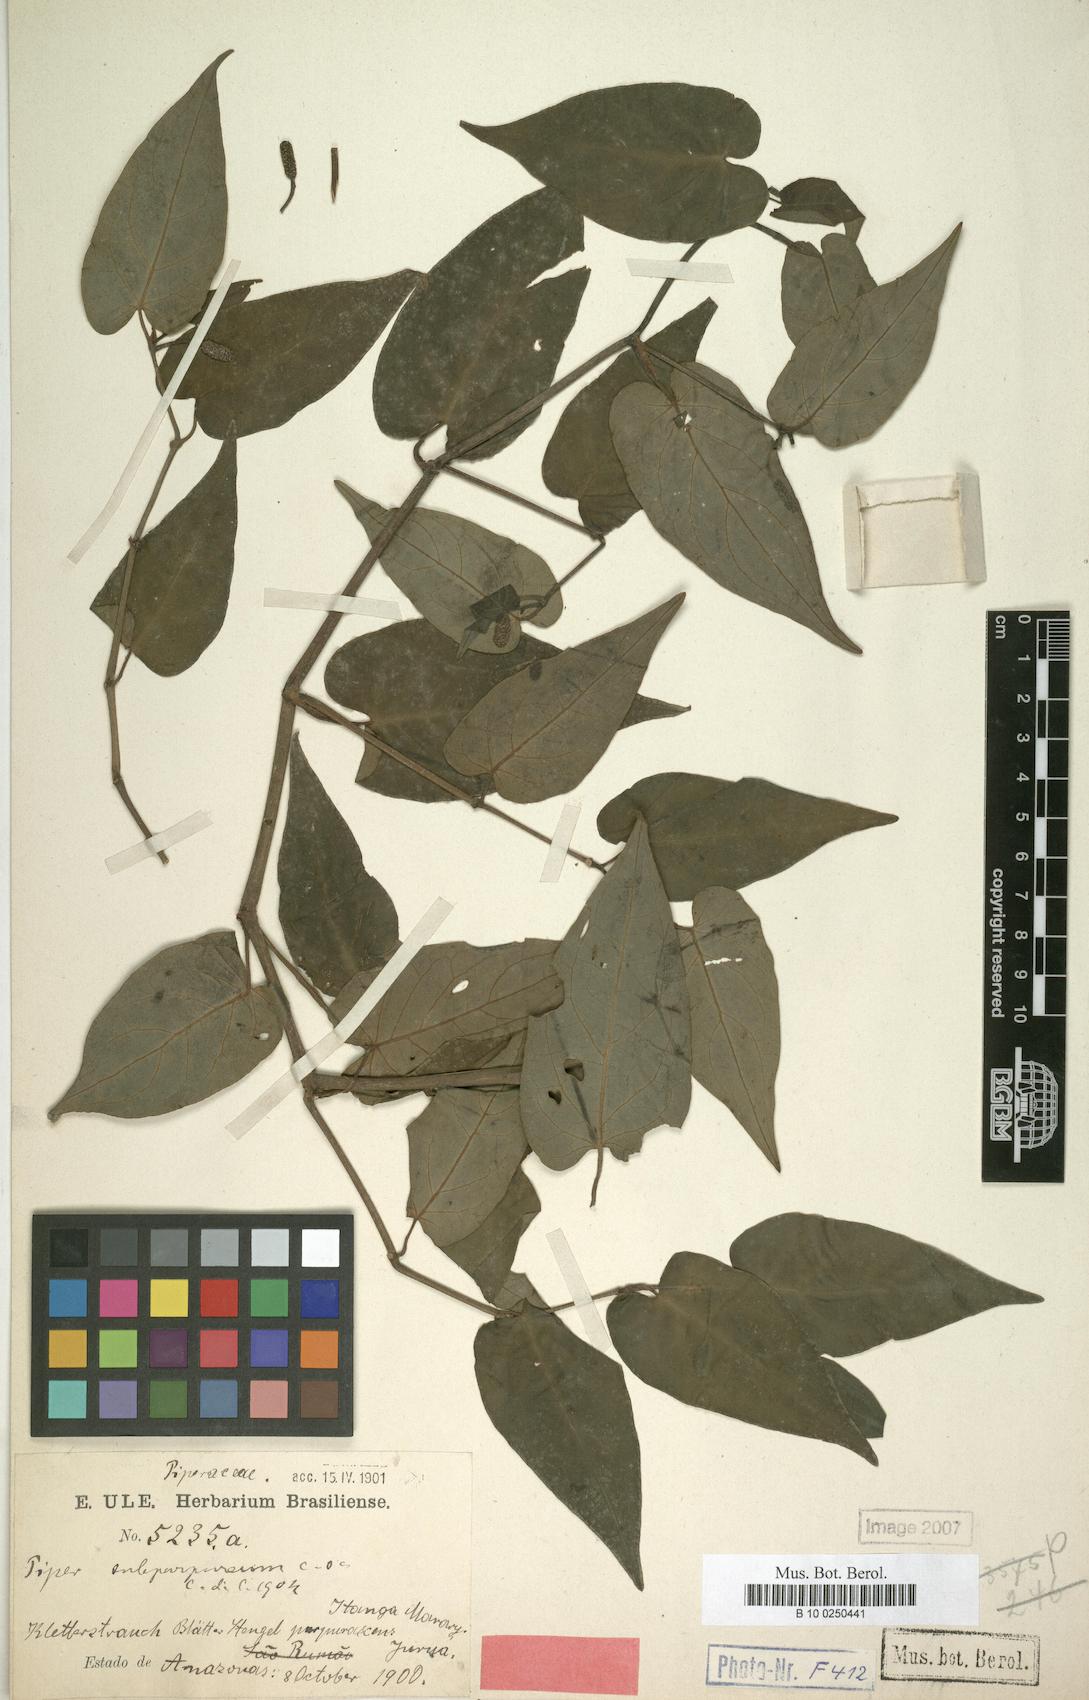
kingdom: Plantae
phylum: Tracheophyta
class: Magnoliopsida
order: Piperales
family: Piperaceae
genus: Piper
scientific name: Piper chavicoides
